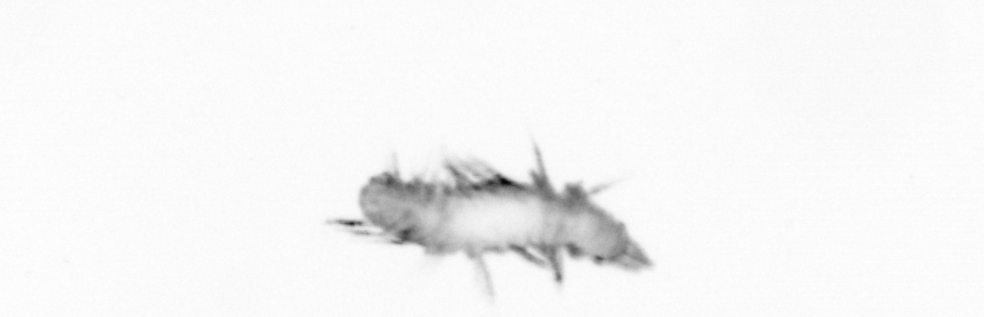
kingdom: Animalia
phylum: Annelida
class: Polychaeta
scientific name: Polychaeta
